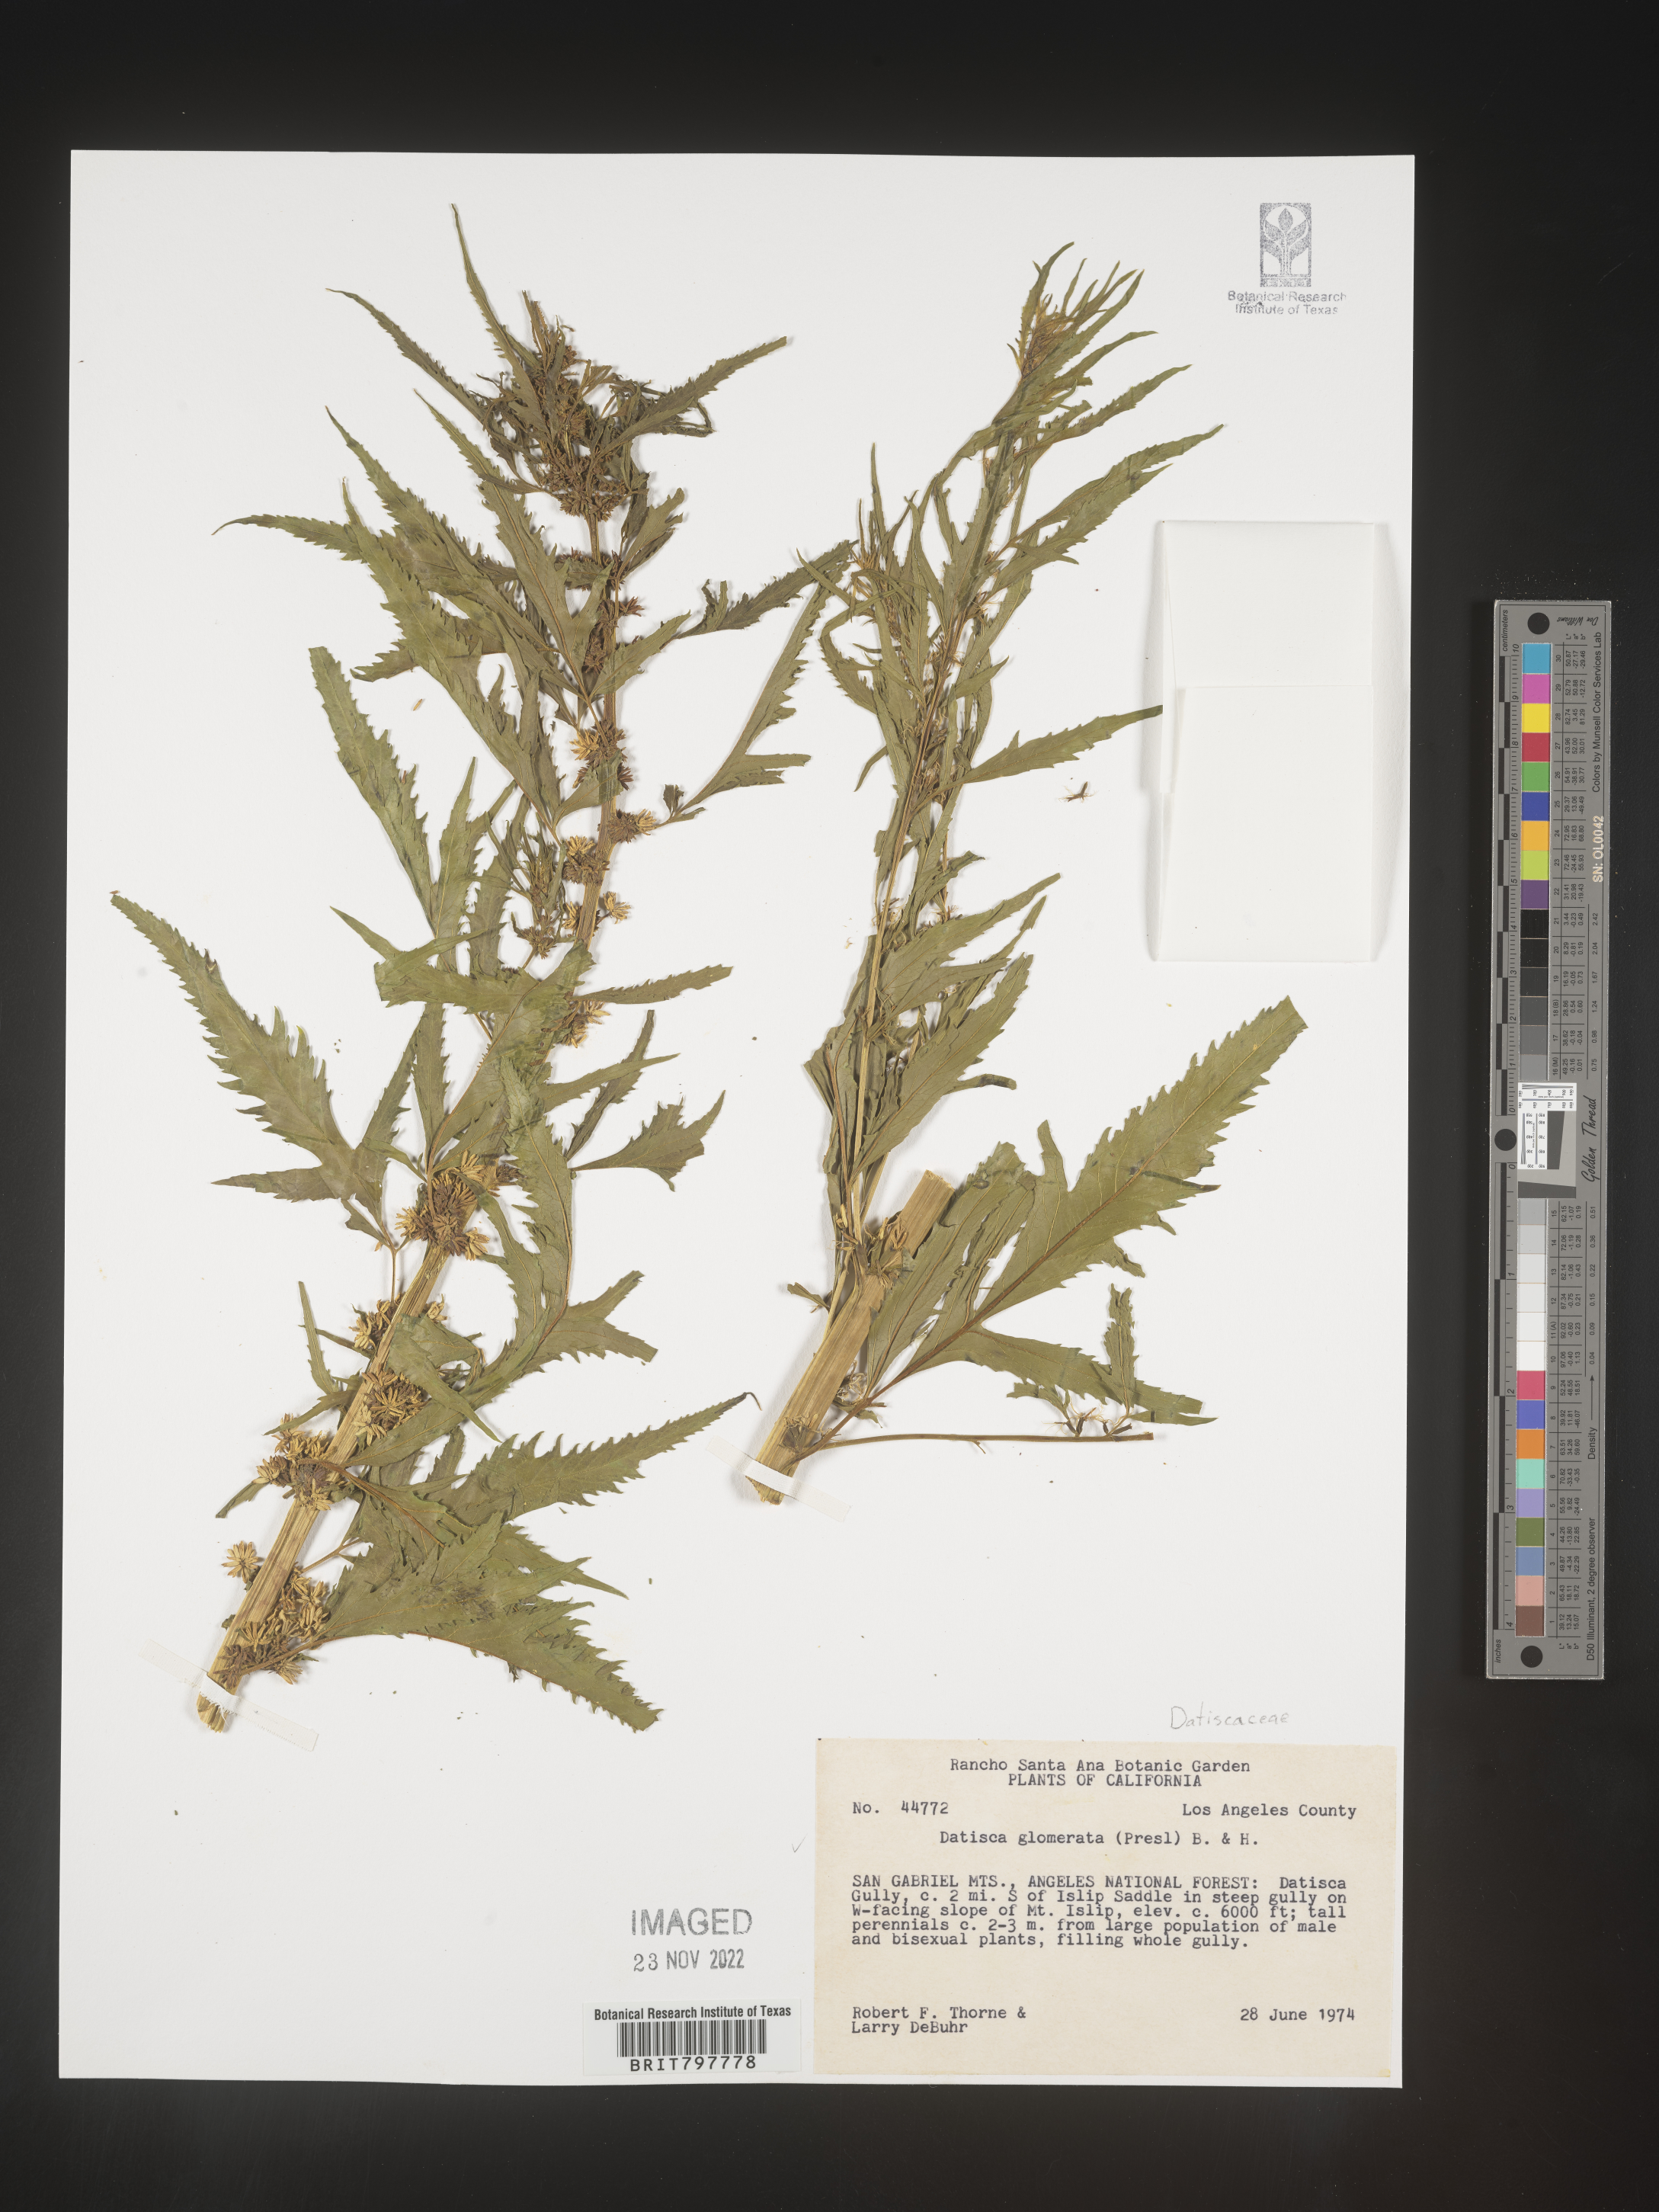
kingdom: Plantae
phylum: Tracheophyta
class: Magnoliopsida
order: Cucurbitales
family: Datiscaceae
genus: Datisca
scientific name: Datisca
